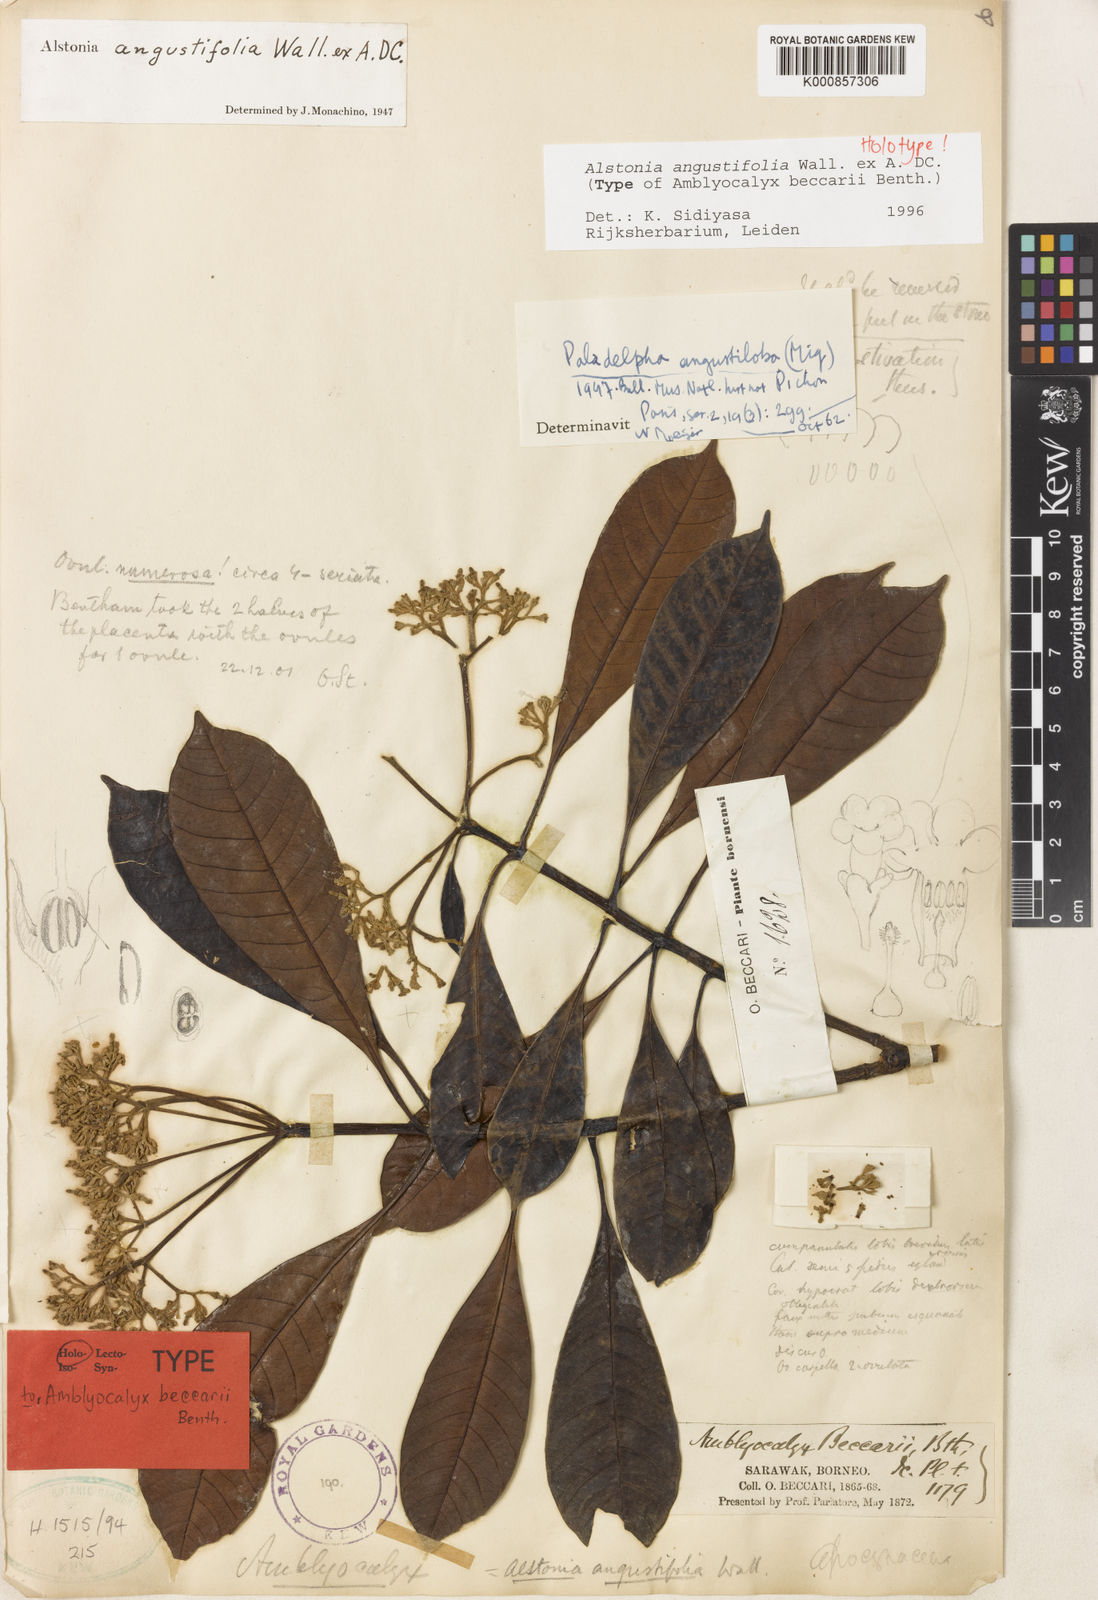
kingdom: Plantae
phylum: Tracheophyta
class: Magnoliopsida
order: Gentianales
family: Apocynaceae
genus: Alstonia
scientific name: Alstonia angustifolia
